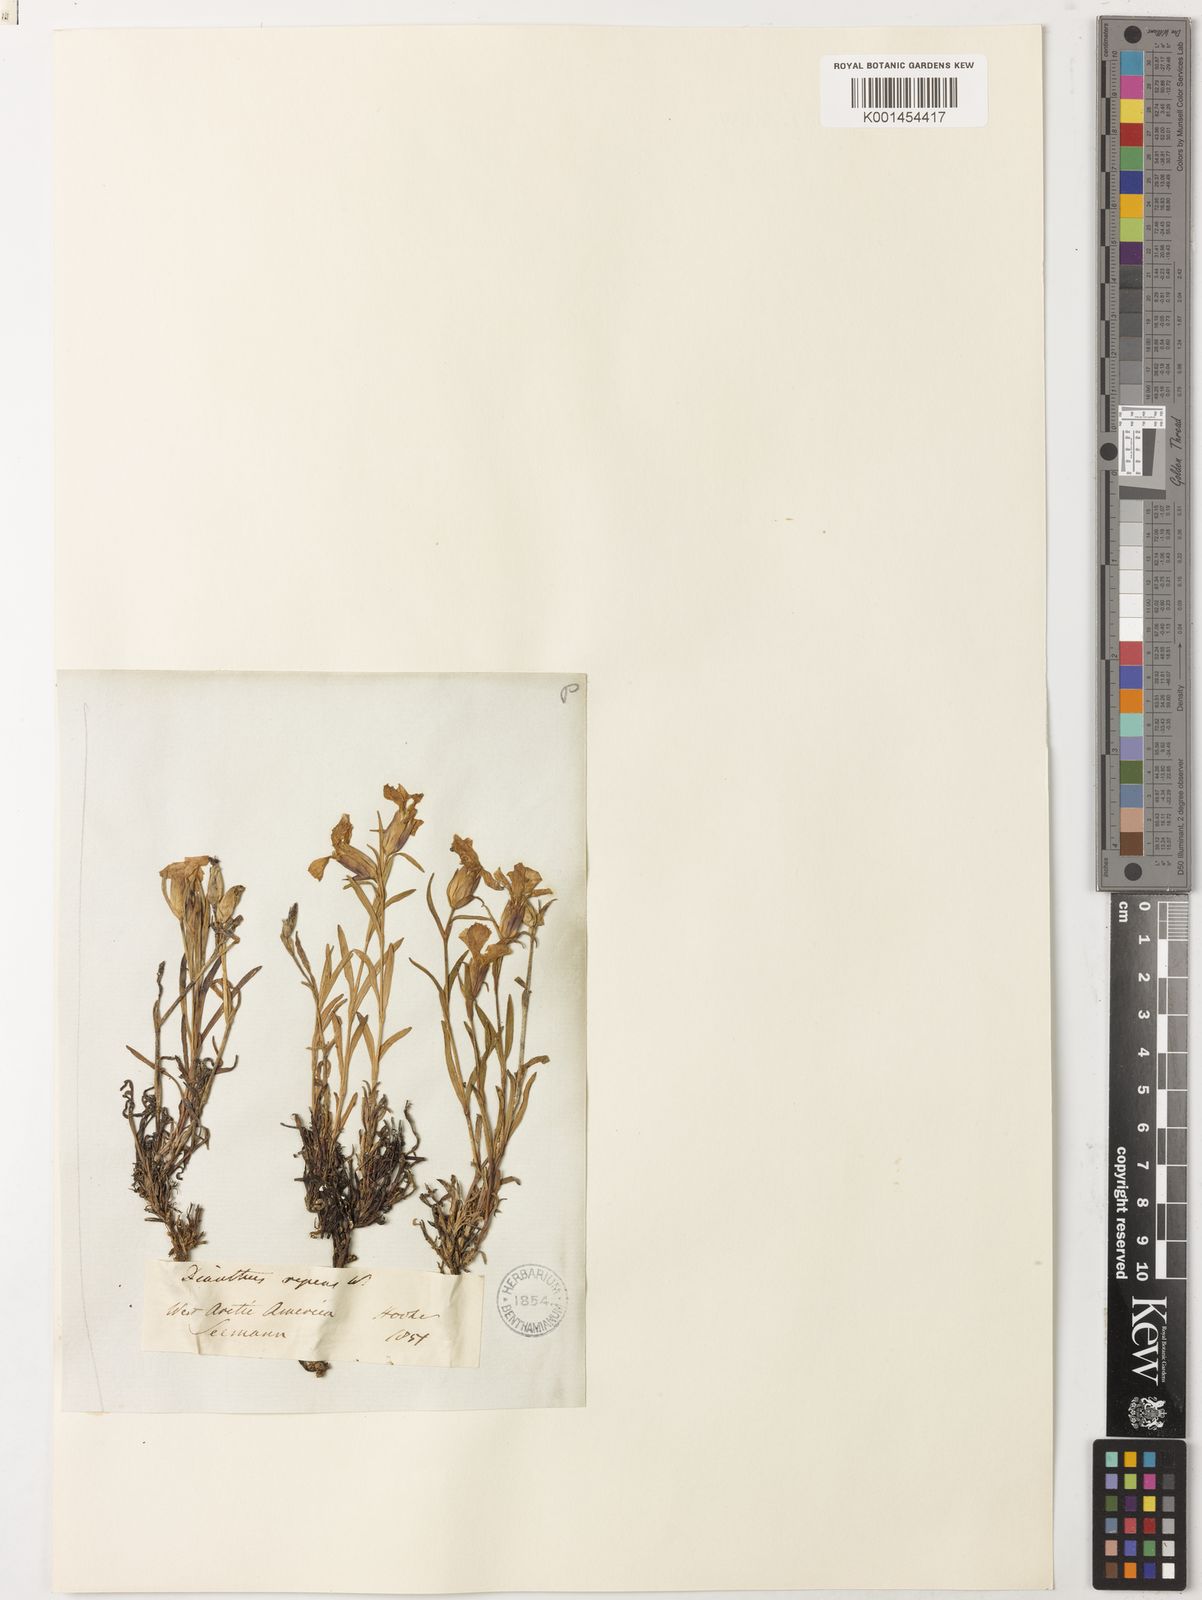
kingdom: Plantae
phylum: Tracheophyta
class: Magnoliopsida
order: Caryophyllales
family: Caryophyllaceae
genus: Dianthus
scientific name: Dianthus repens
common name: Northern pink
